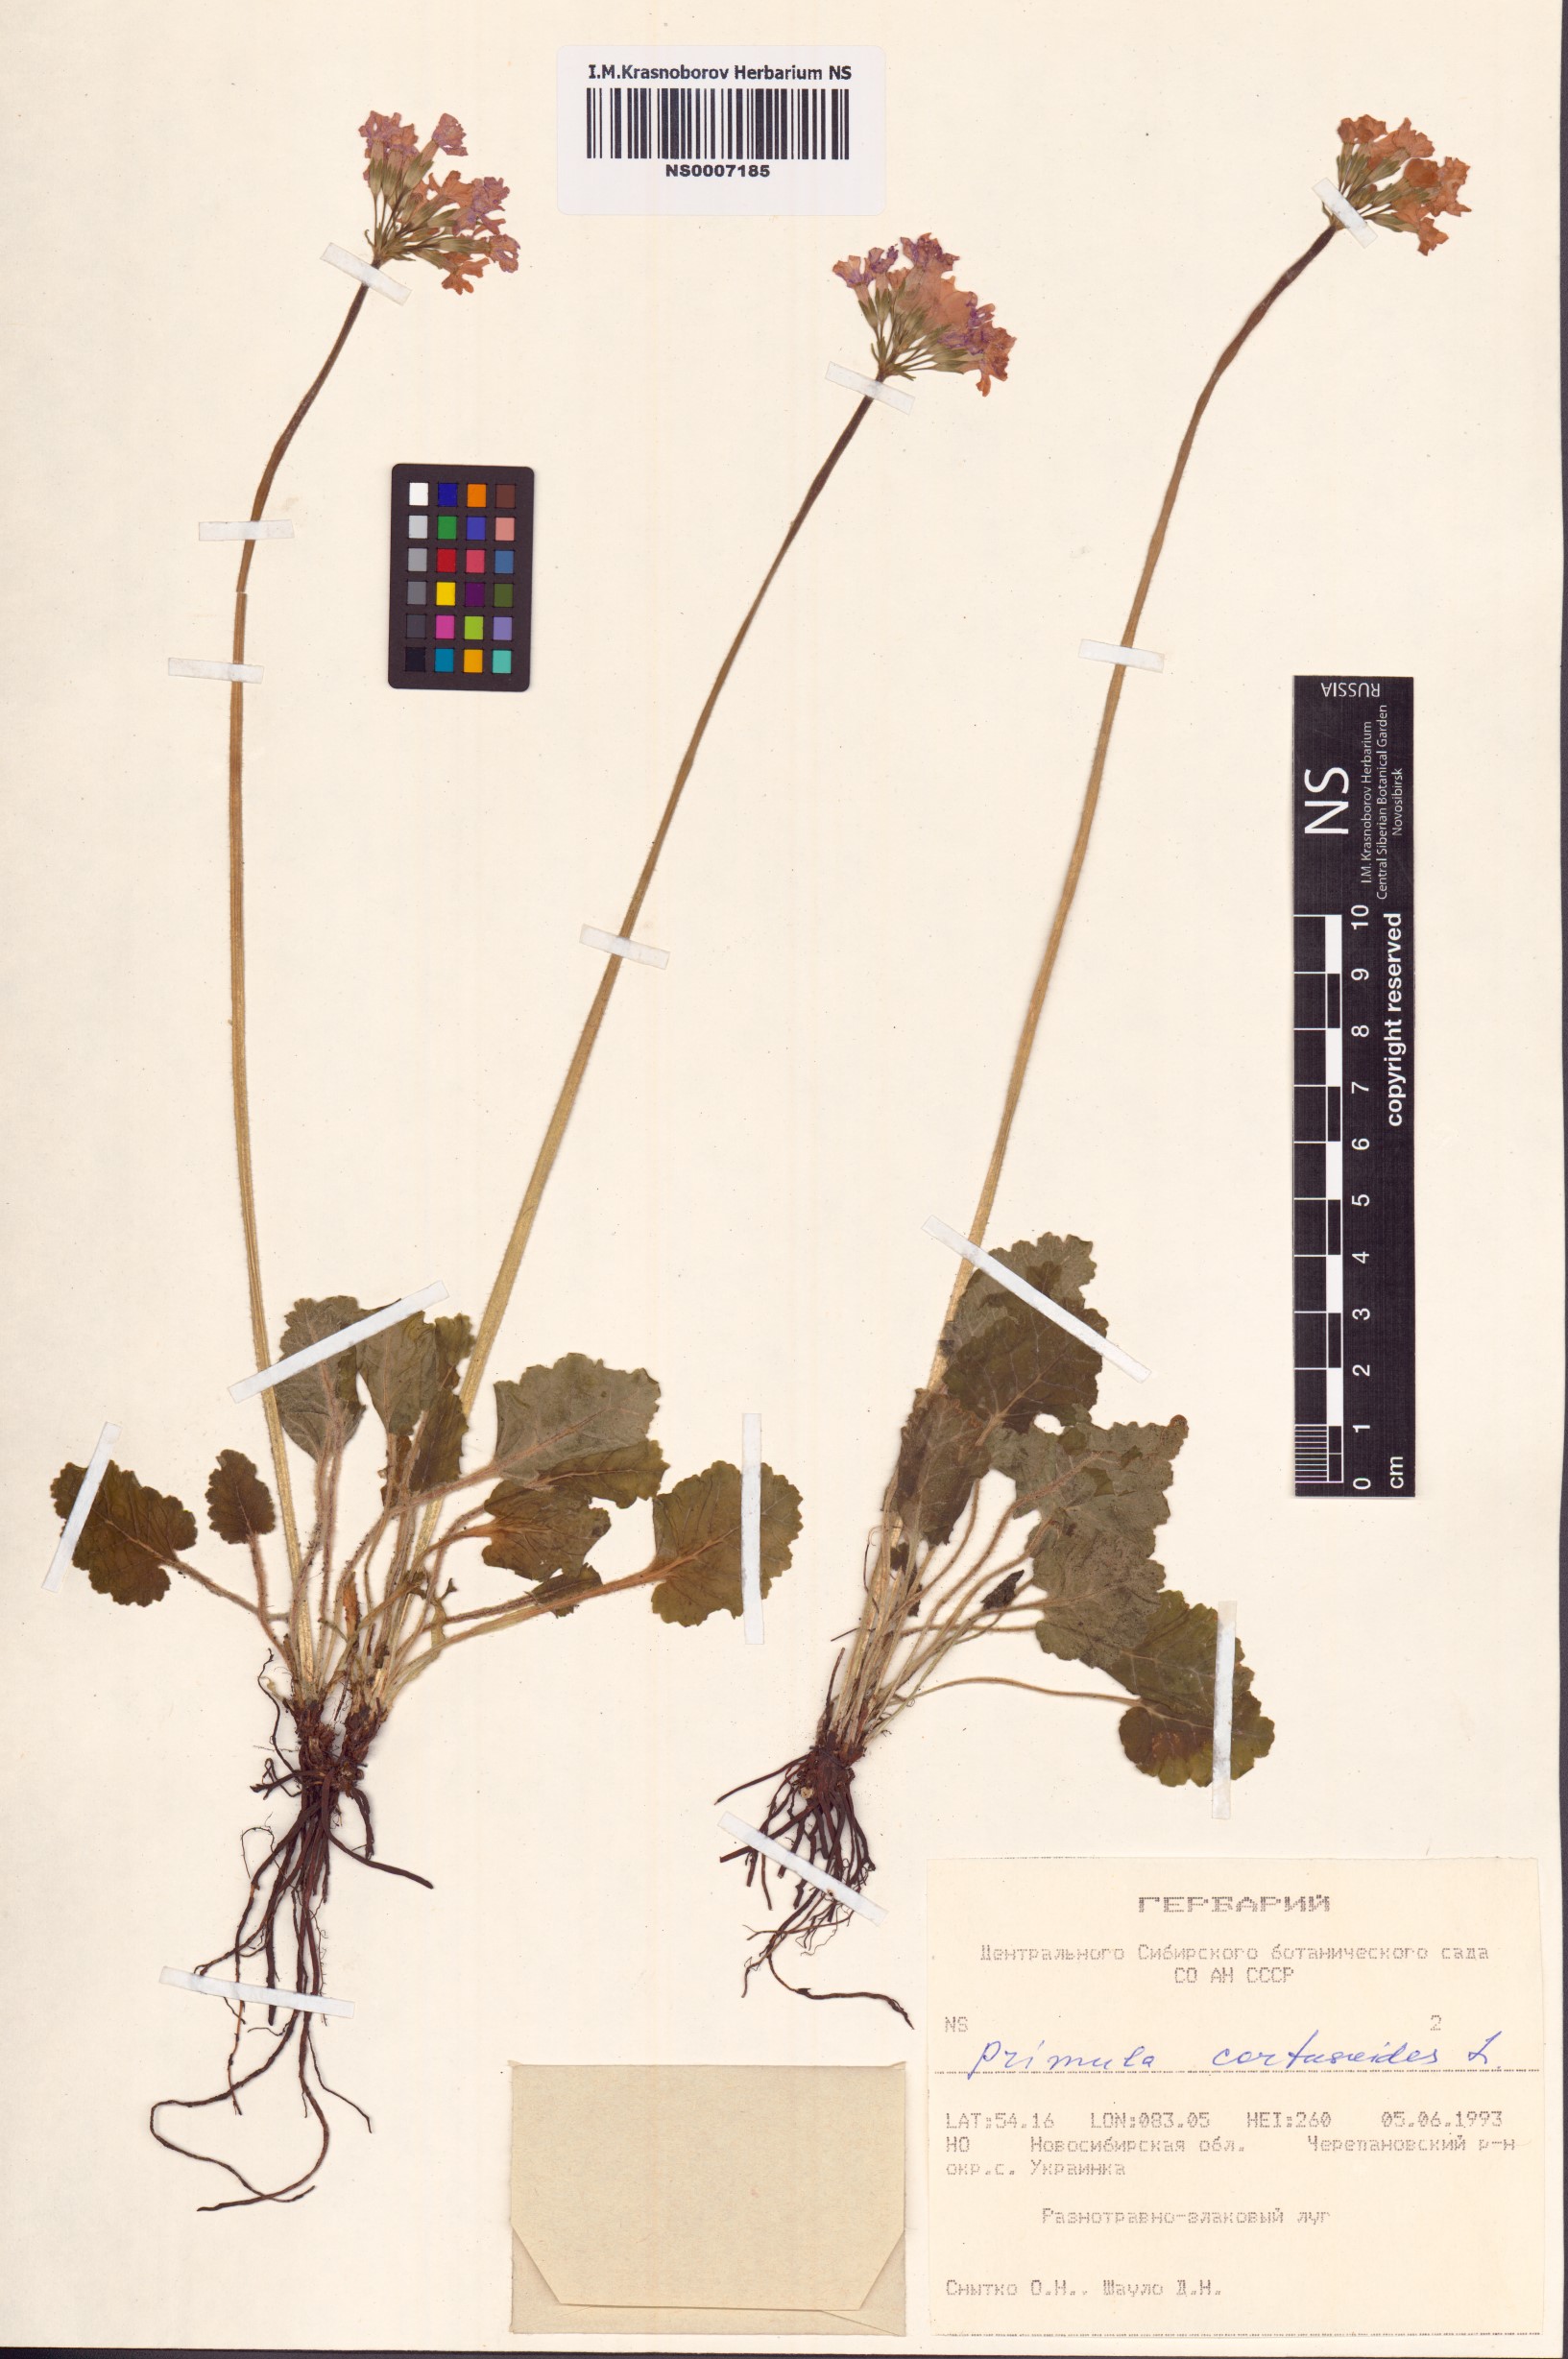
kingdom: Plantae
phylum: Tracheophyta
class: Magnoliopsida
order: Ericales
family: Primulaceae
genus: Primula
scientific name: Primula cortusoides
